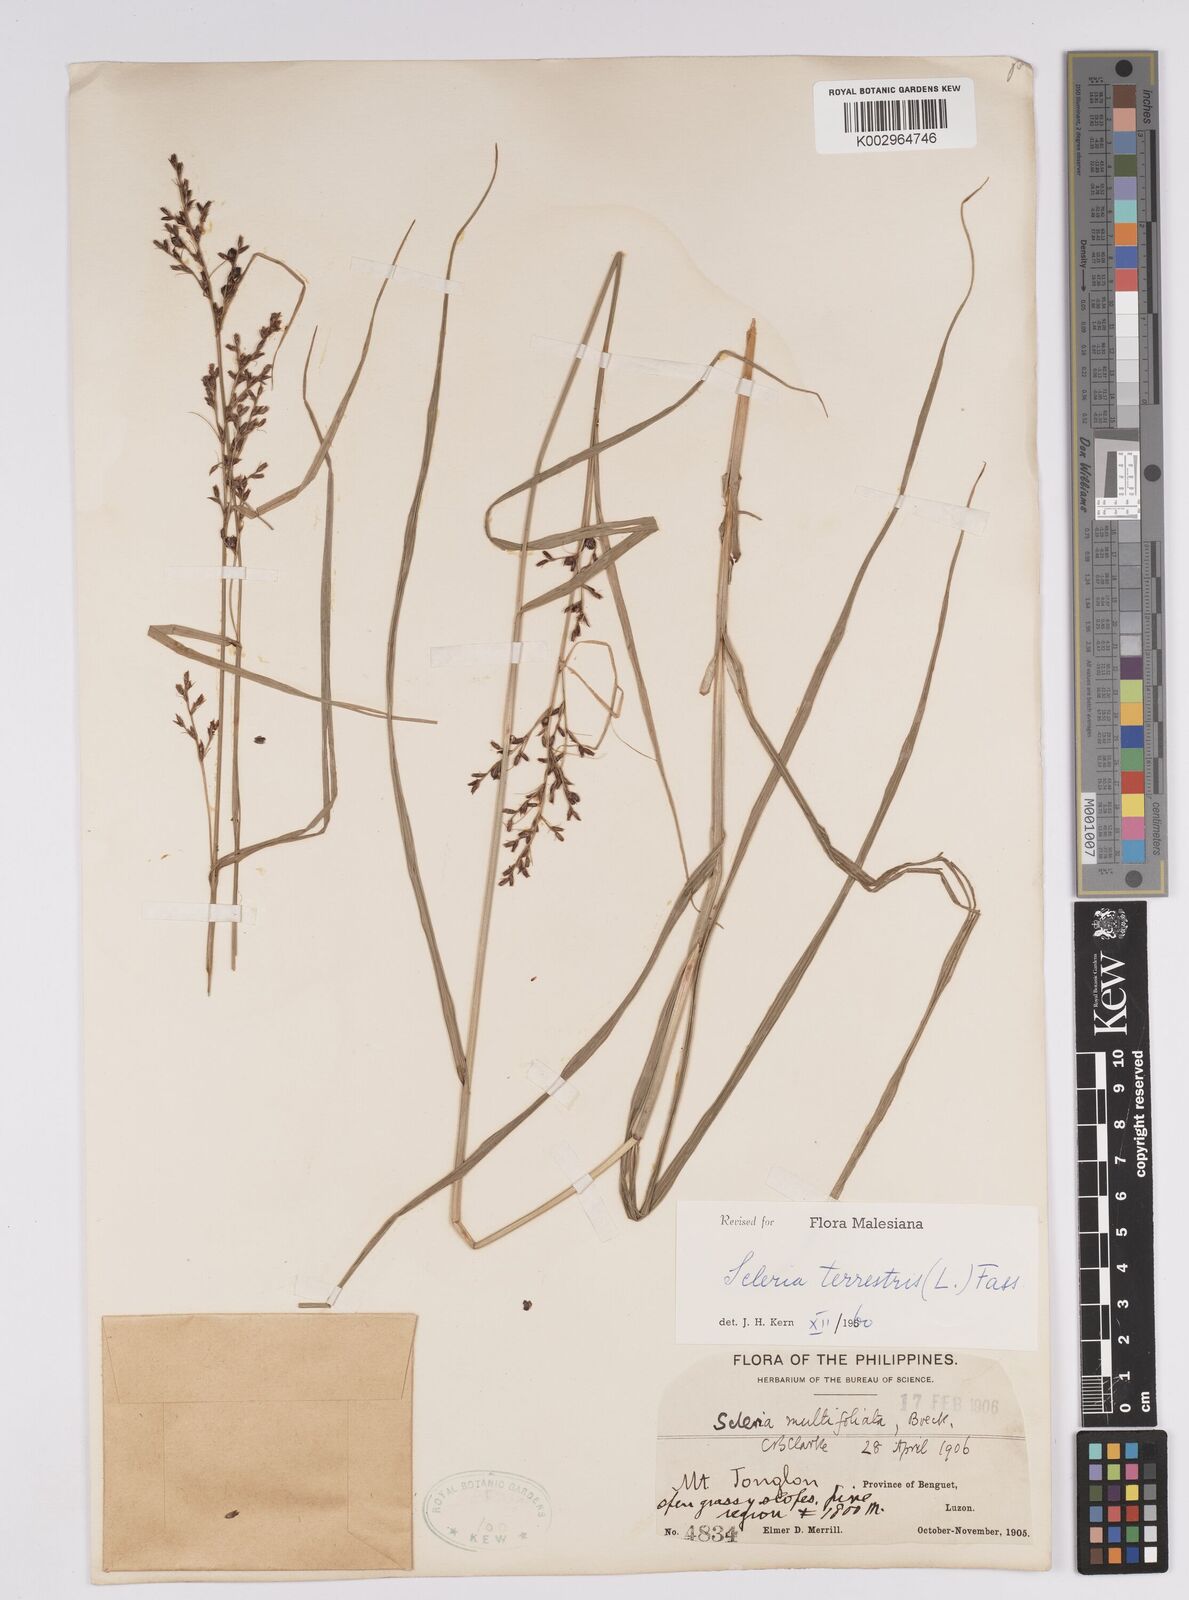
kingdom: Plantae
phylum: Tracheophyta
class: Liliopsida
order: Poales
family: Cyperaceae
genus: Scleria
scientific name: Scleria terrestris
